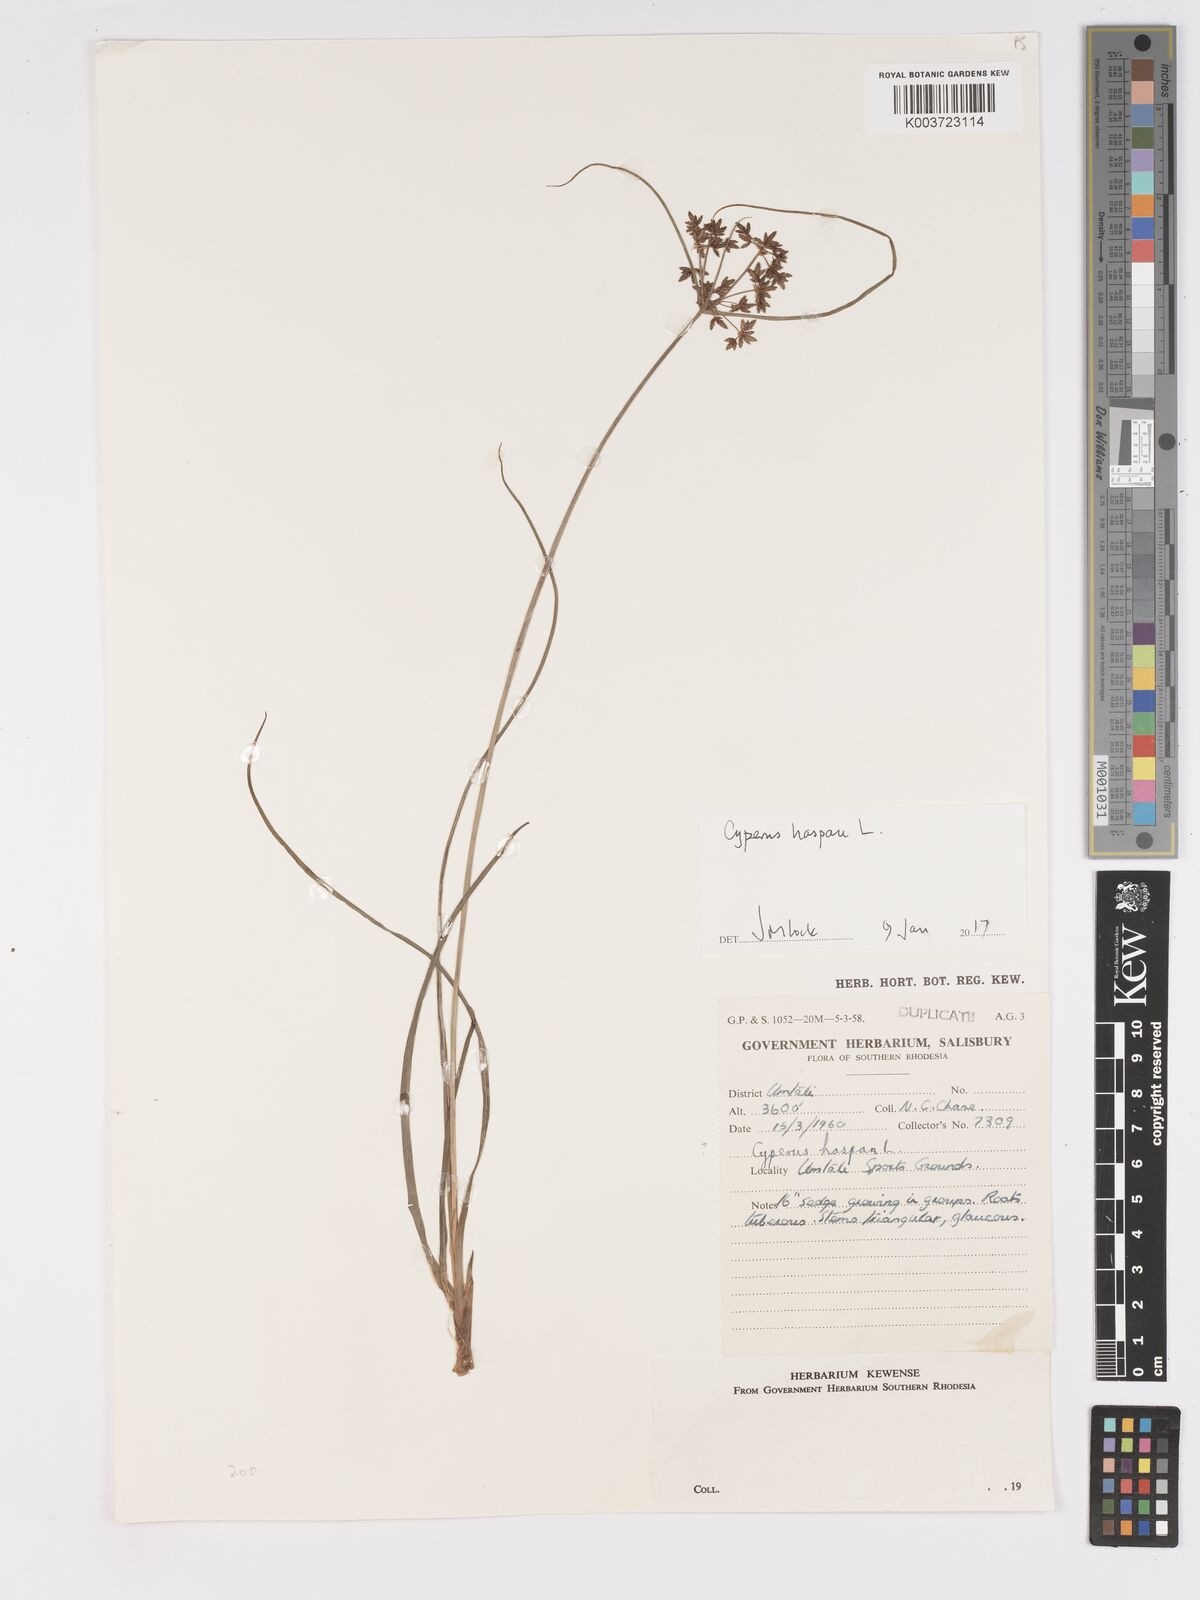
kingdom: Plantae
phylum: Tracheophyta
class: Liliopsida
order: Poales
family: Cyperaceae
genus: Cyperus
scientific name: Cyperus haspan
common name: Haspan flatsedge
